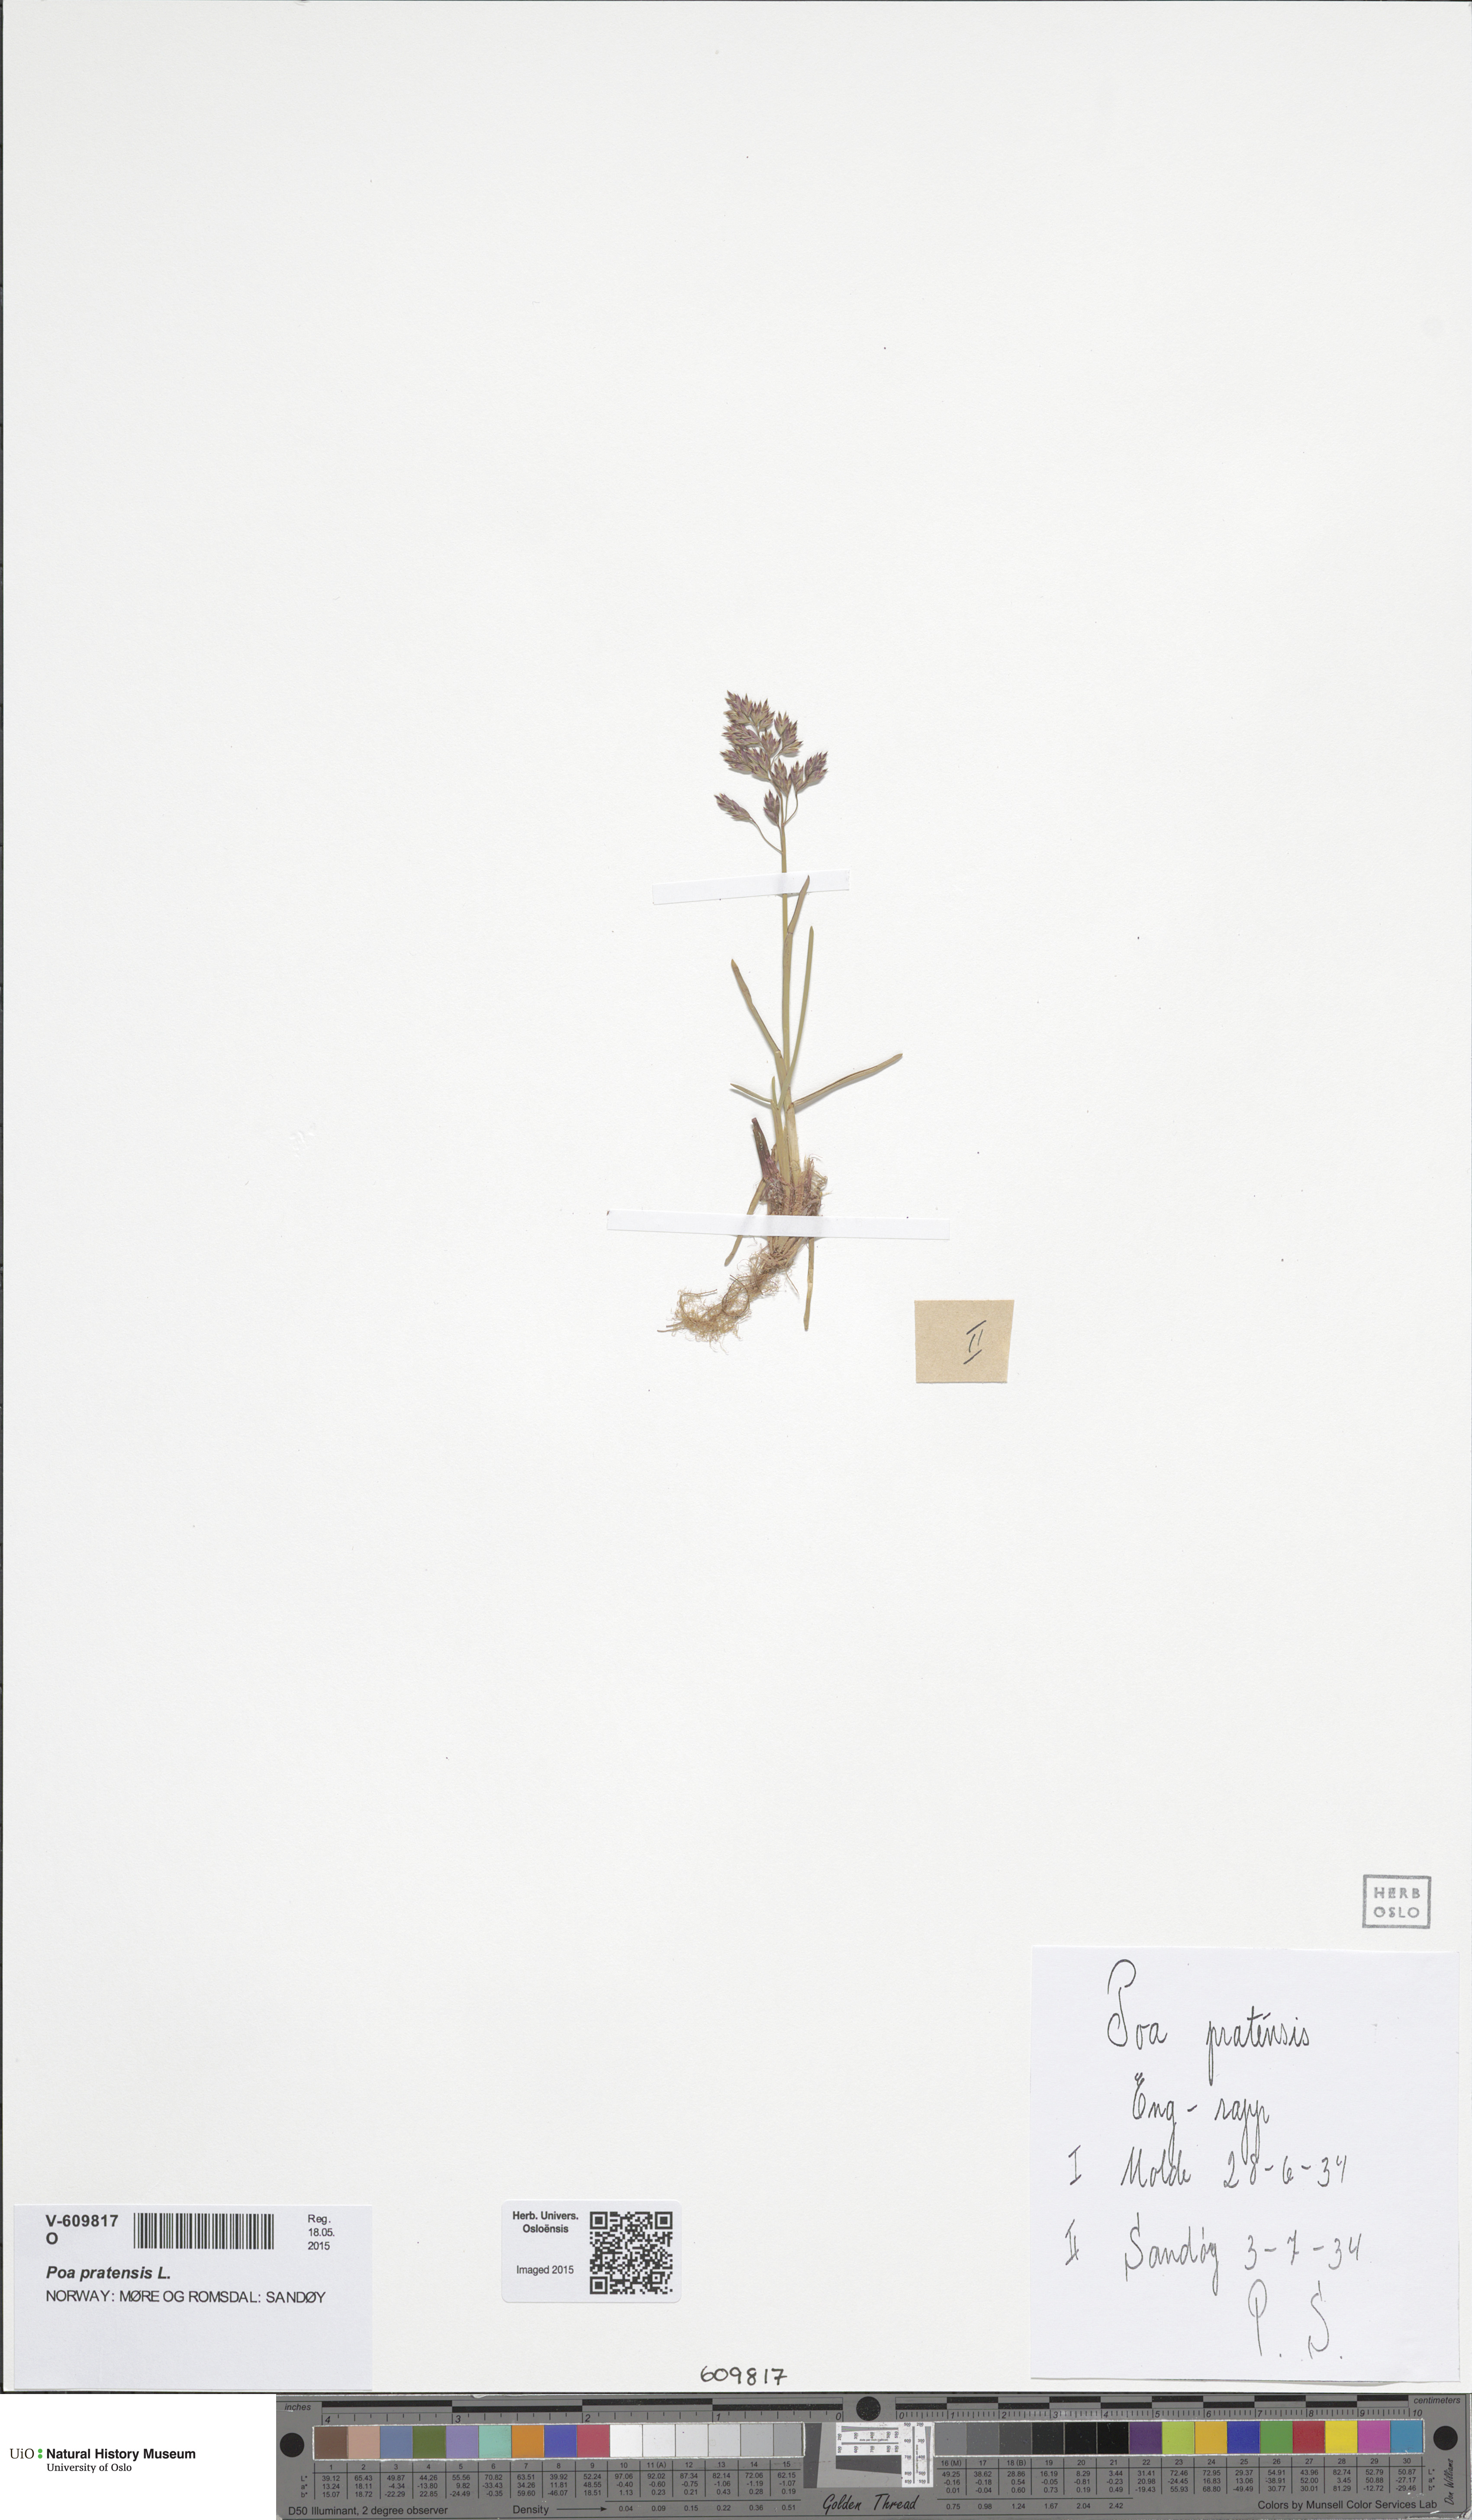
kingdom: Plantae
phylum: Tracheophyta
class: Liliopsida
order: Poales
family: Poaceae
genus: Poa
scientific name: Poa pratensis
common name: Kentucky bluegrass
